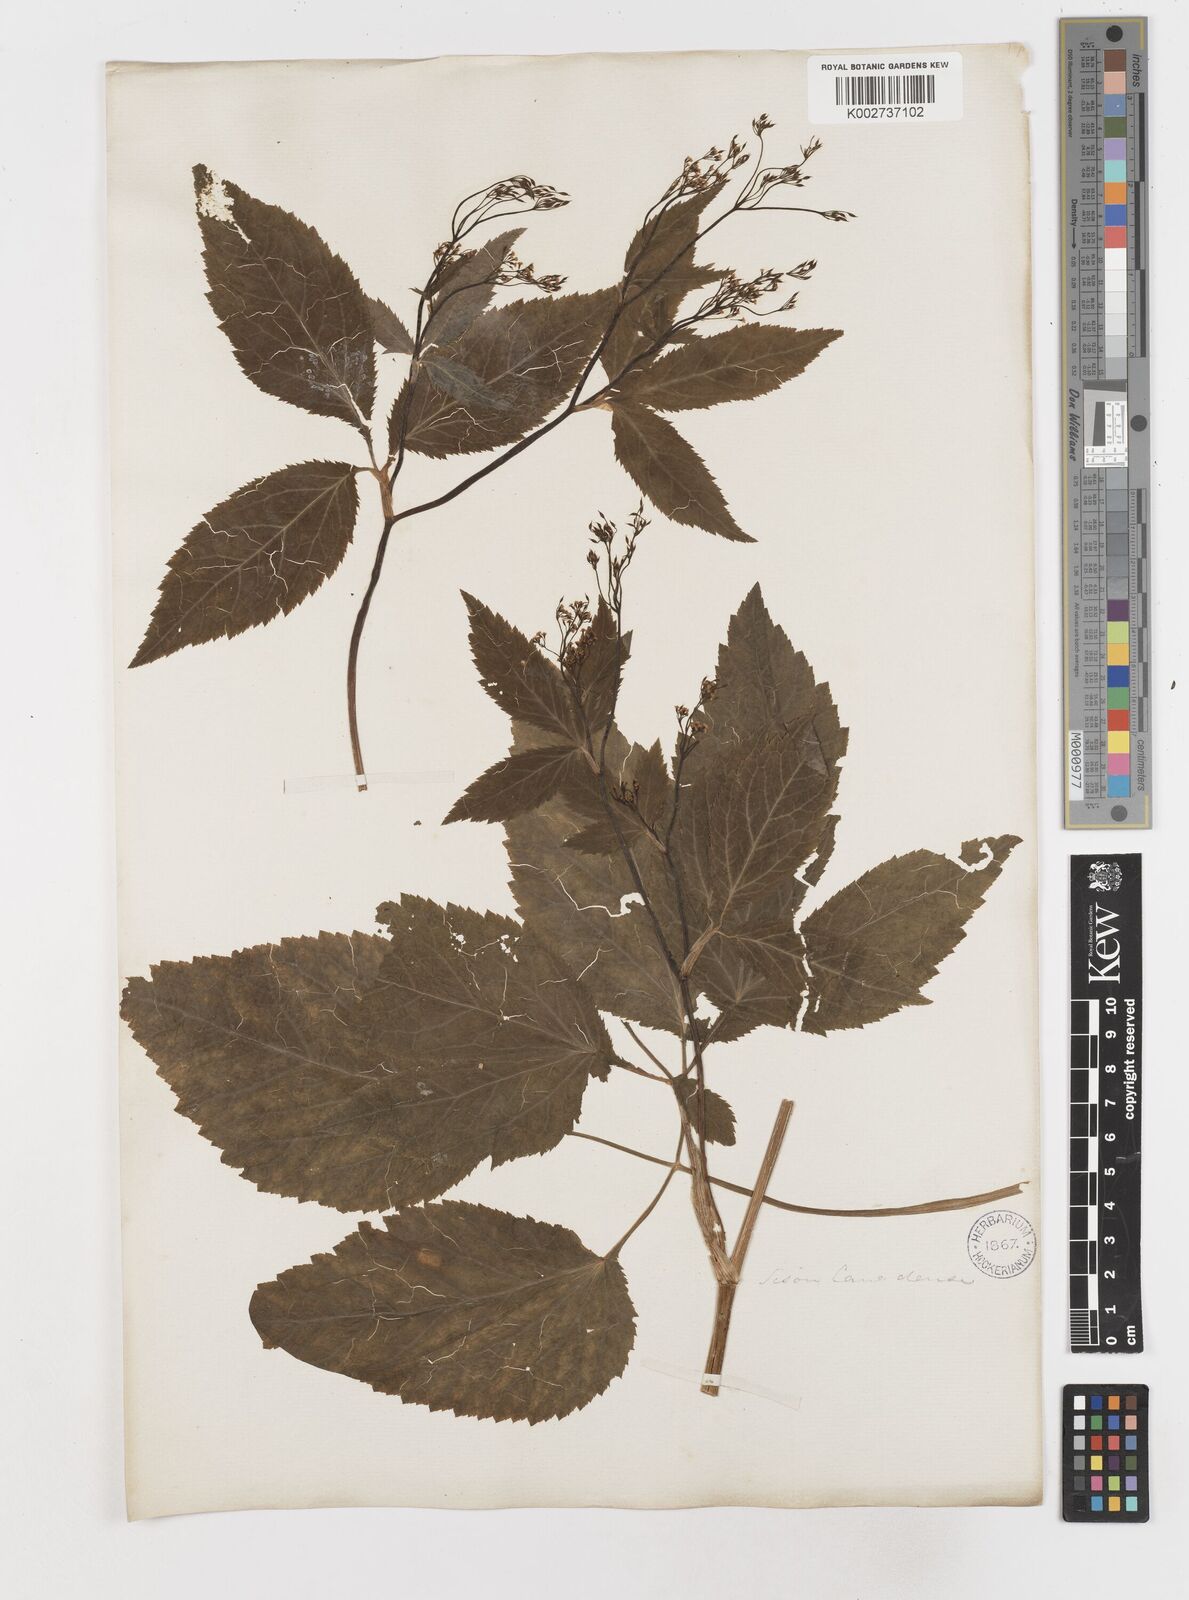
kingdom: Plantae
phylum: Tracheophyta
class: Magnoliopsida
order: Apiales
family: Apiaceae
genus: Cryptotaenia
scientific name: Cryptotaenia canadensis
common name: Honewort
